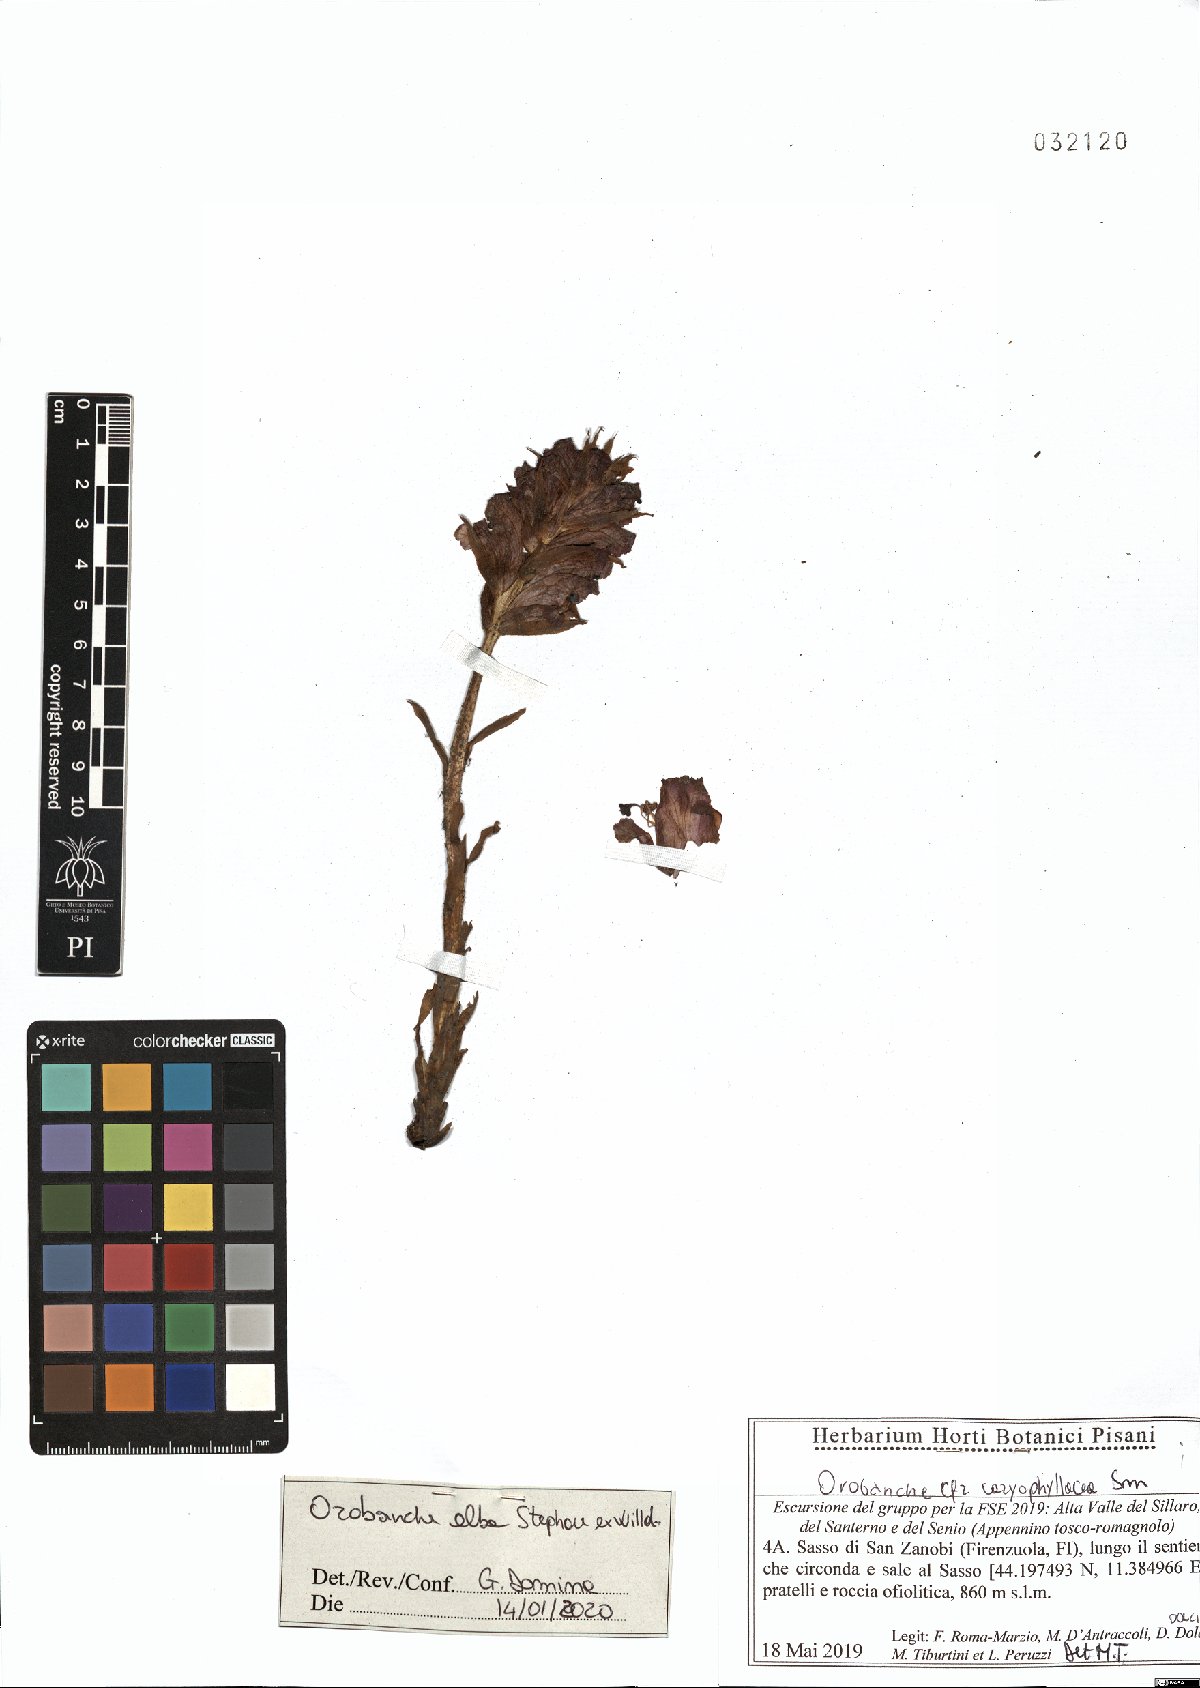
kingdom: Plantae
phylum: Tracheophyta
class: Magnoliopsida
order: Lamiales
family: Orobanchaceae
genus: Orobanche
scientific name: Orobanche alba
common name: Thyme broomrape
